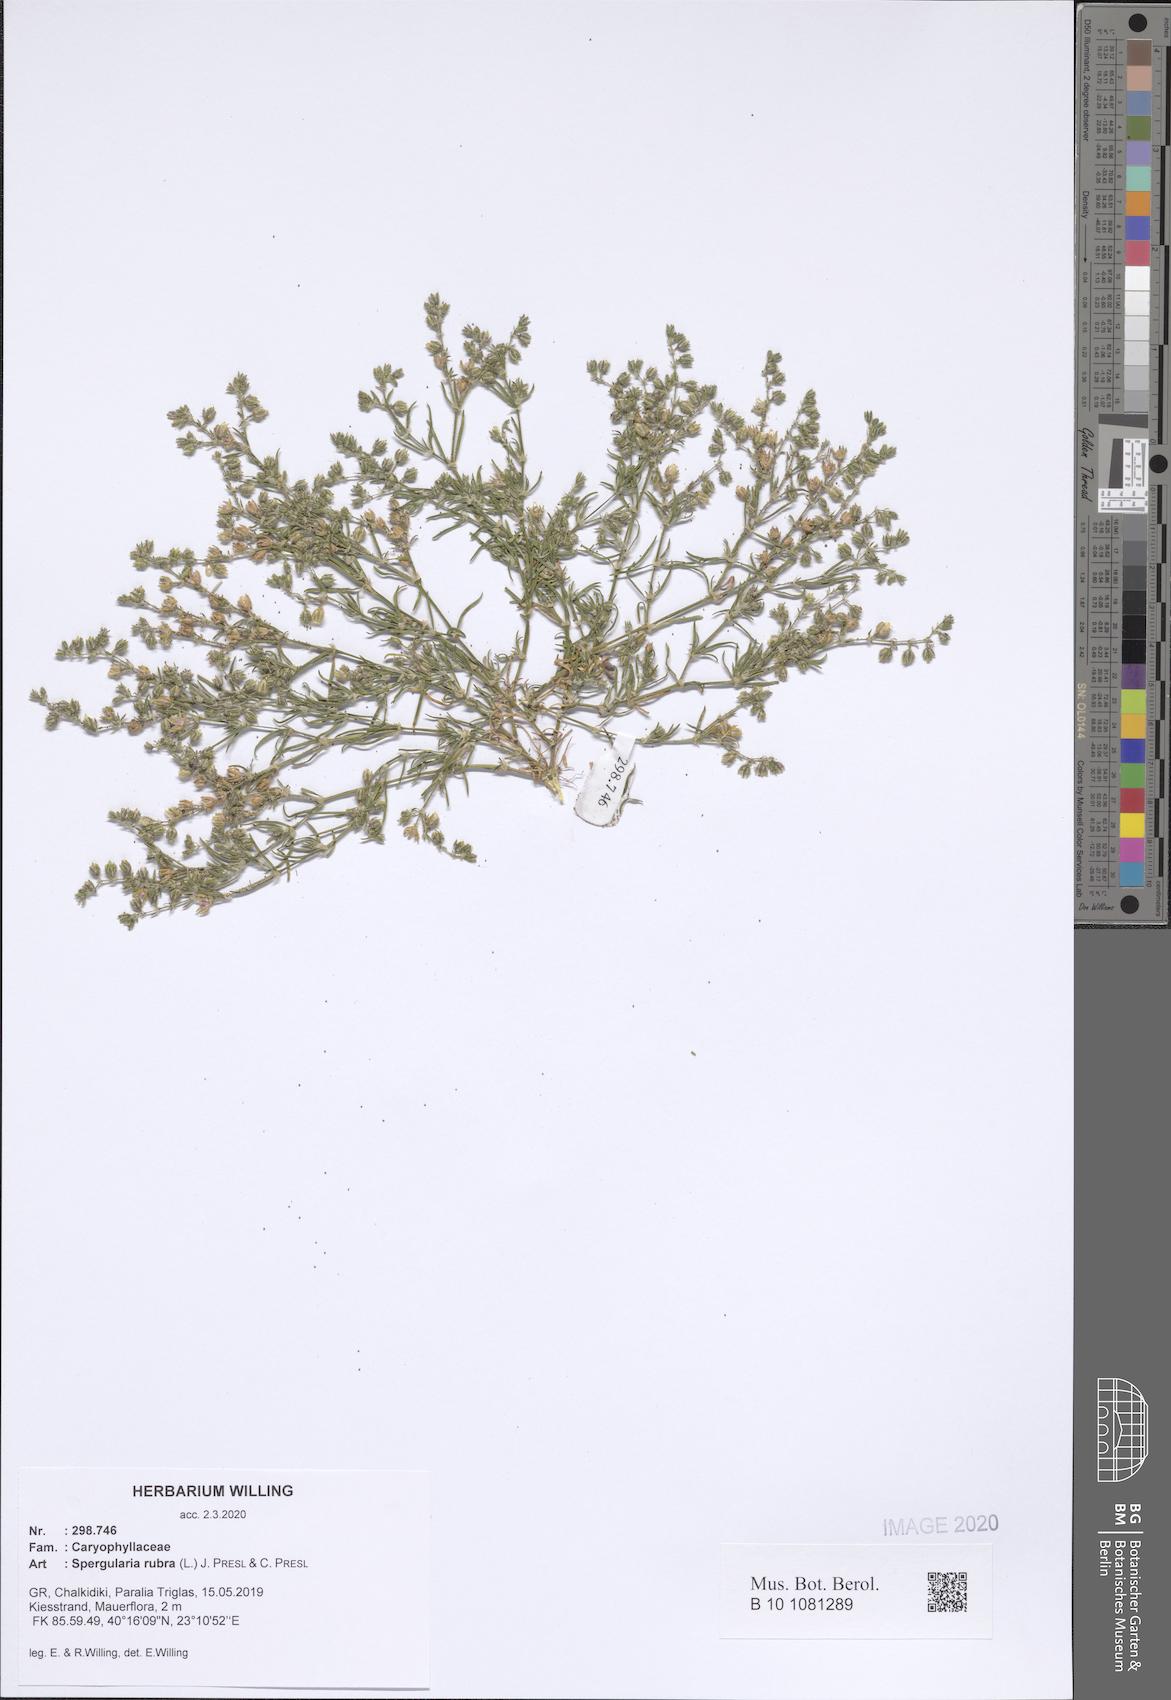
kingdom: Plantae
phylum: Tracheophyta
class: Magnoliopsida
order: Caryophyllales
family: Caryophyllaceae
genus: Spergularia
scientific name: Spergularia rubra
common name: Red sand-spurrey
